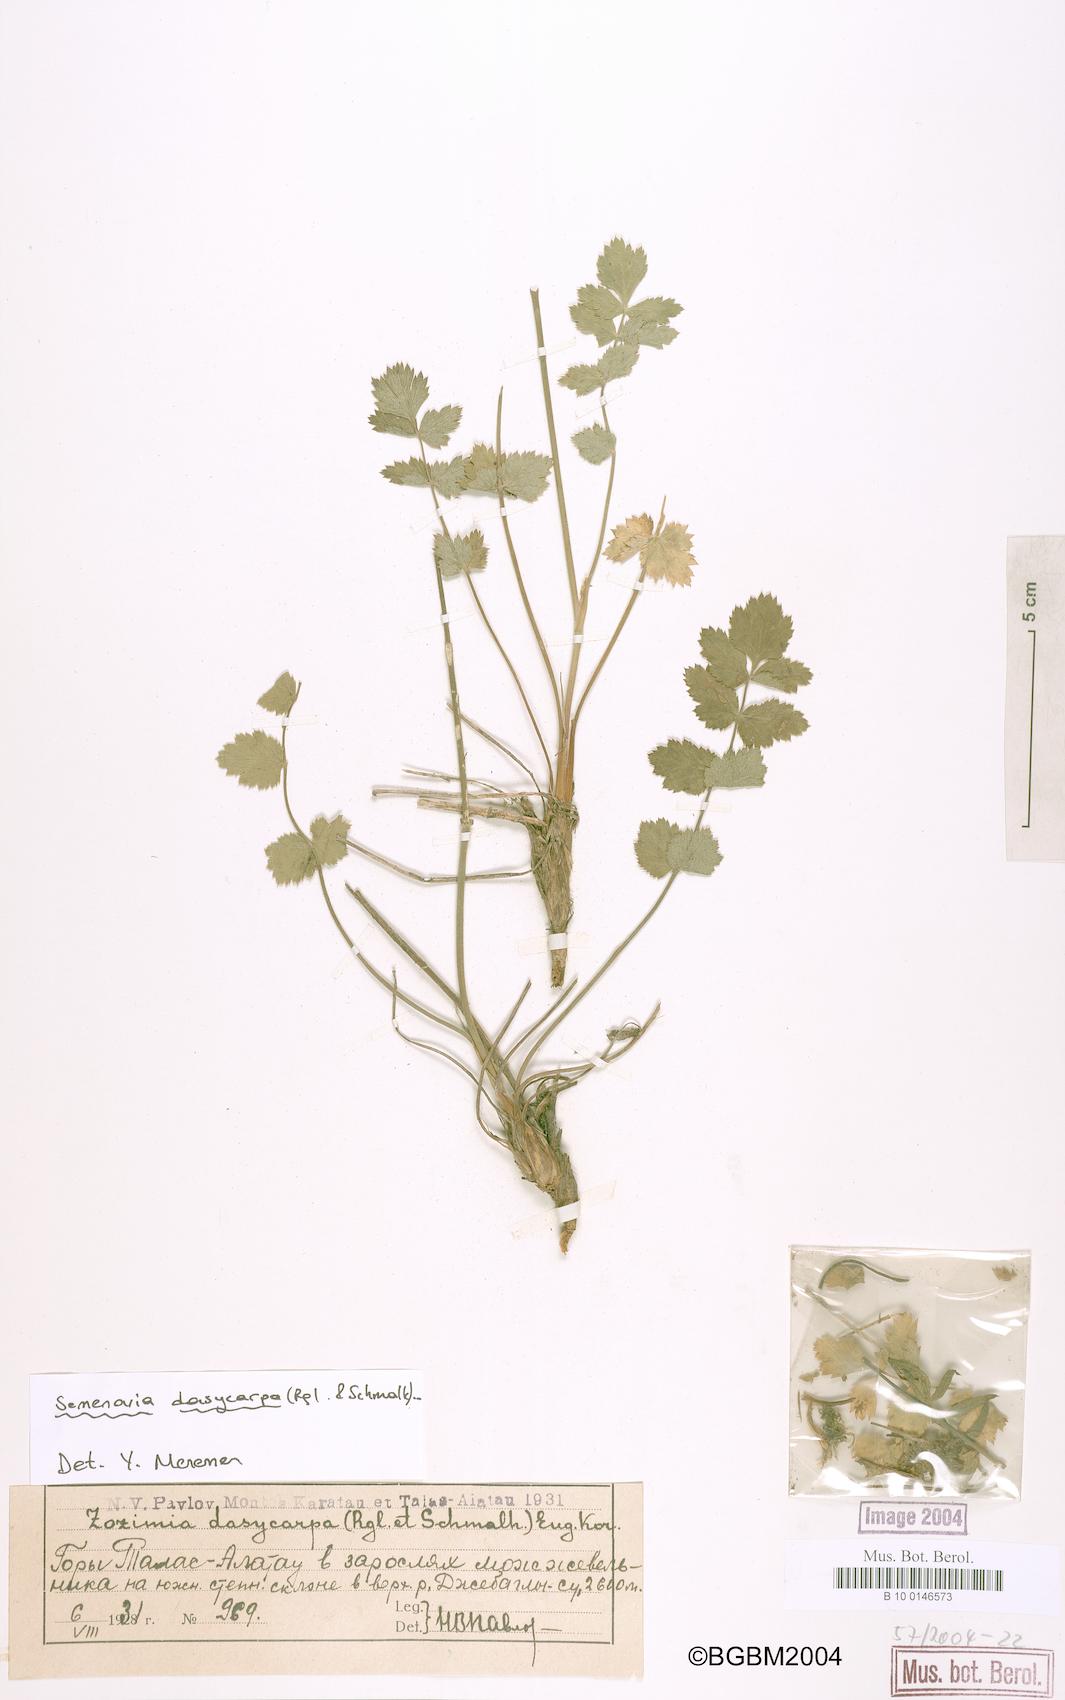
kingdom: Plantae
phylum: Tracheophyta
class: Magnoliopsida
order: Apiales
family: Apiaceae
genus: Semenovia
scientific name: Semenovia dasycarpa
